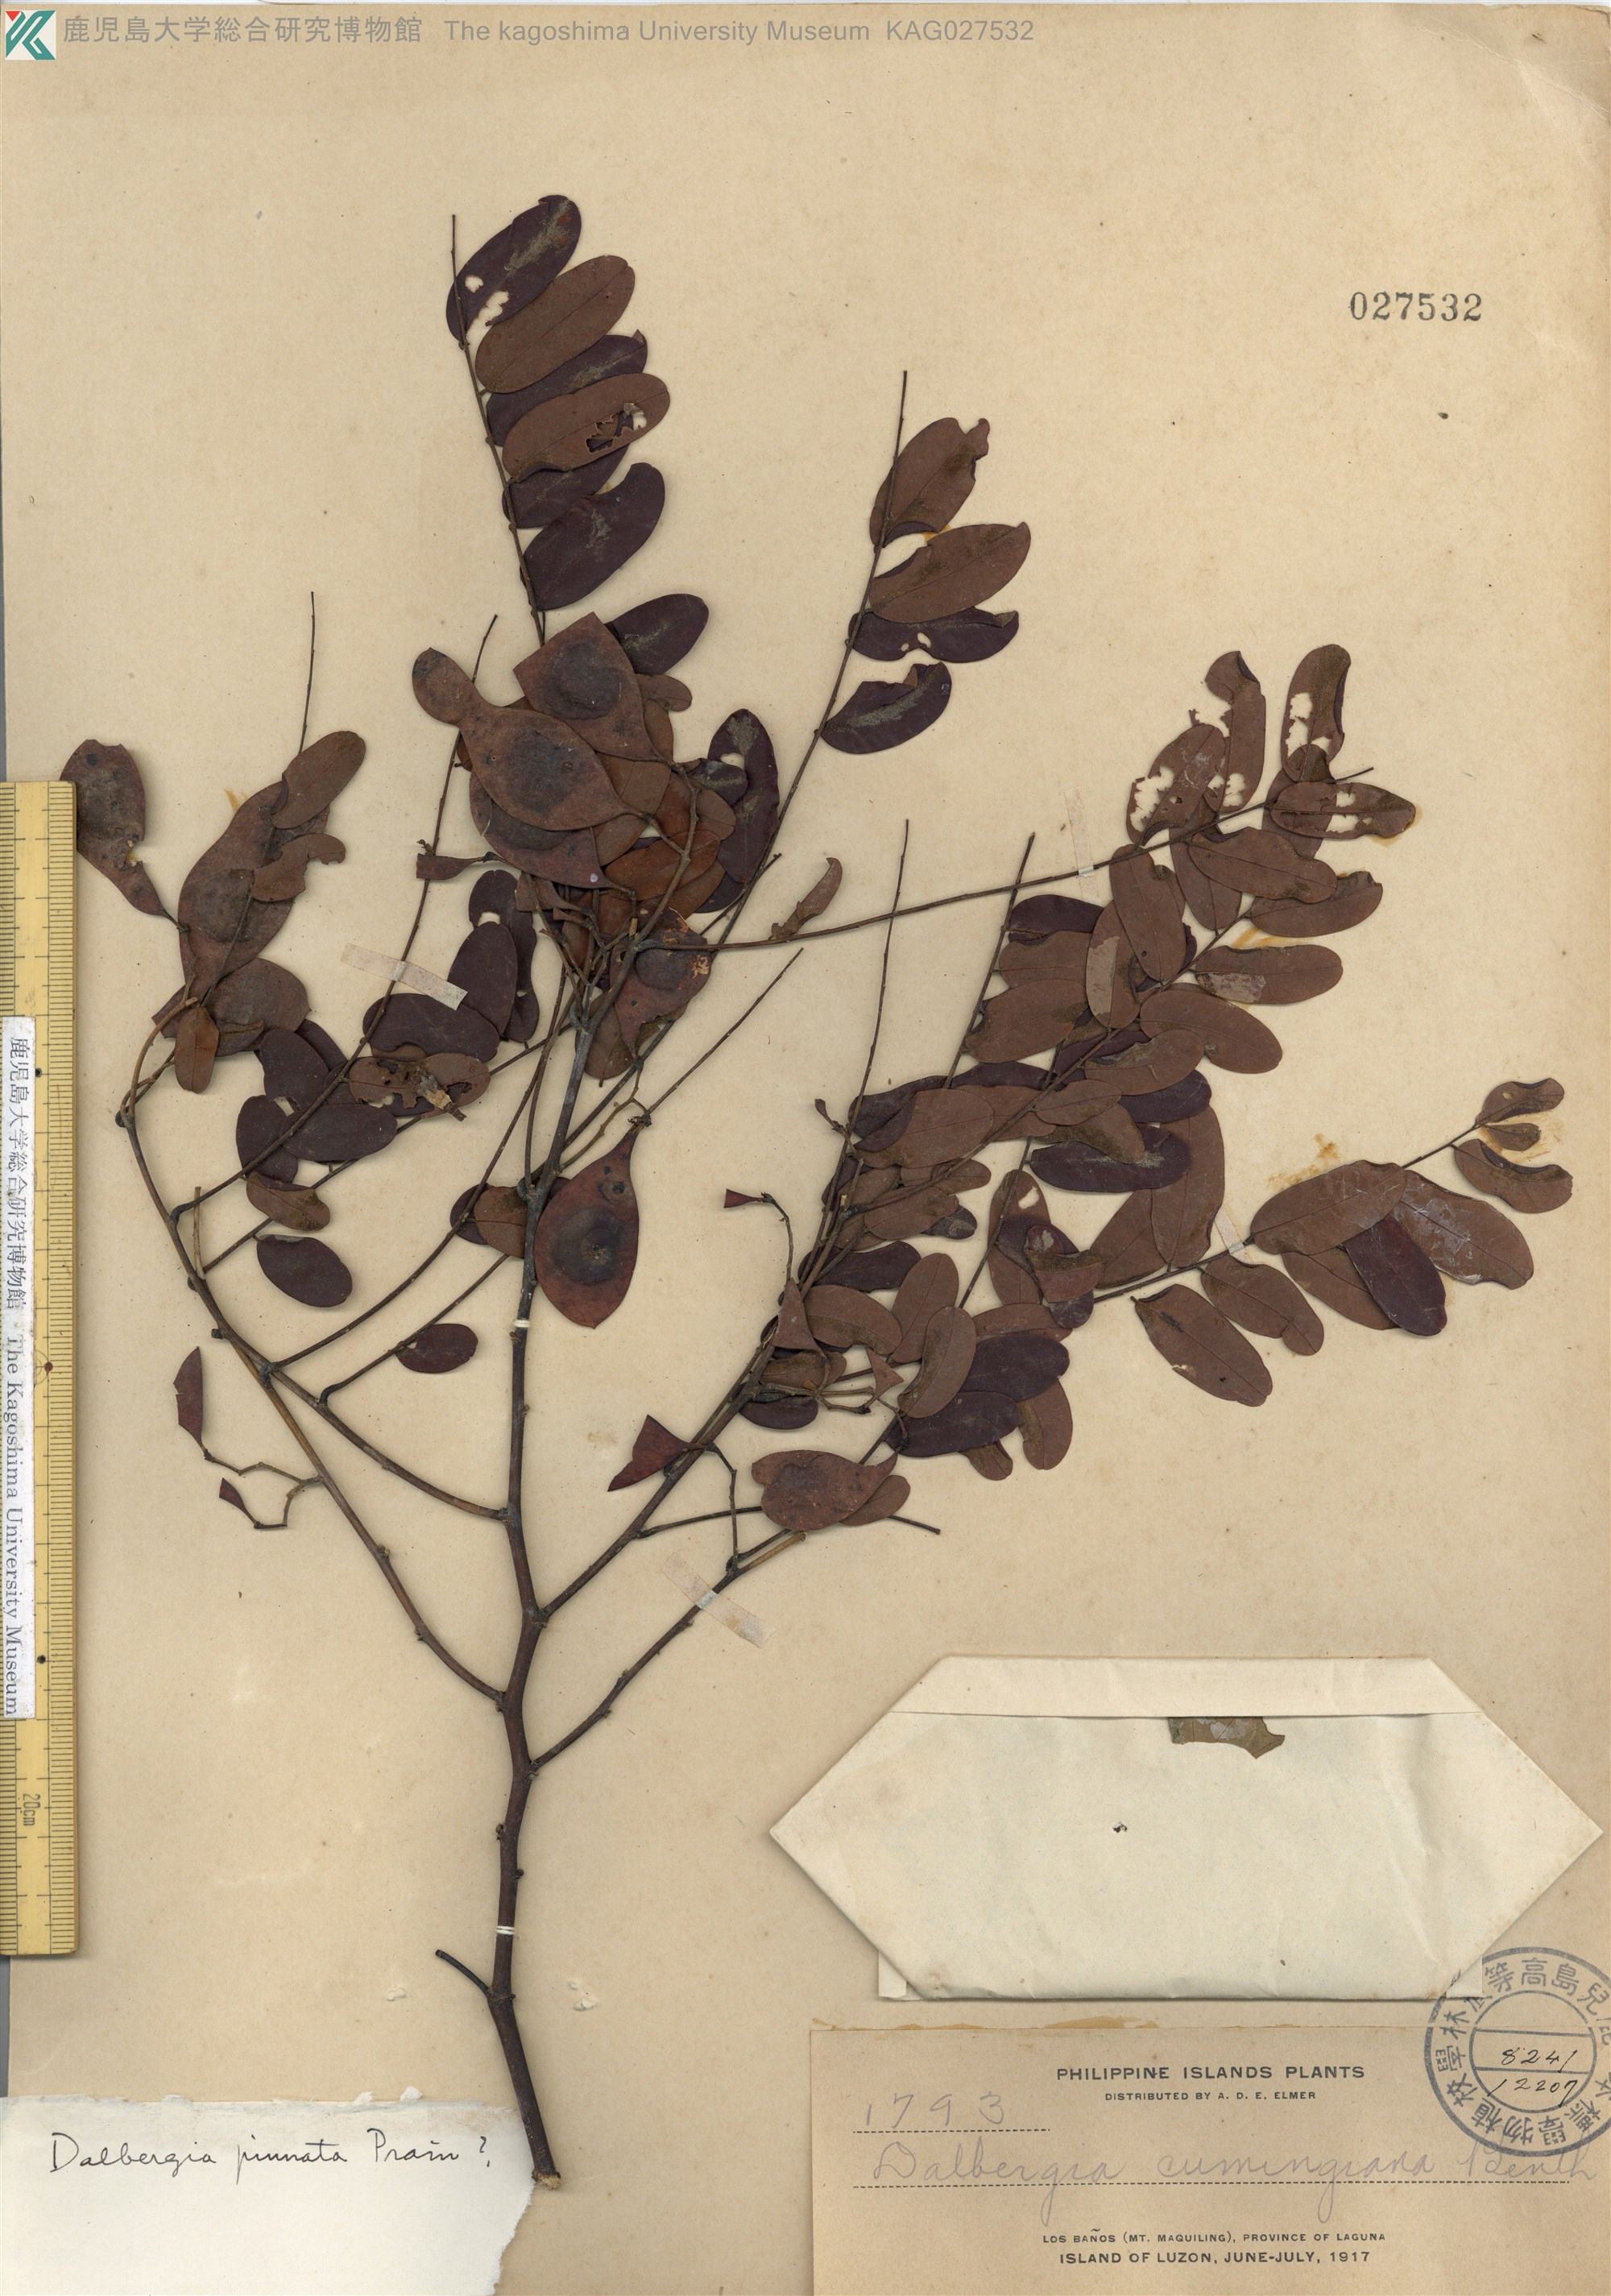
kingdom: Plantae
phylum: Tracheophyta
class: Magnoliopsida
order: Fabales
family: Fabaceae
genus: Dalbergia
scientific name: Dalbergia pinnata
